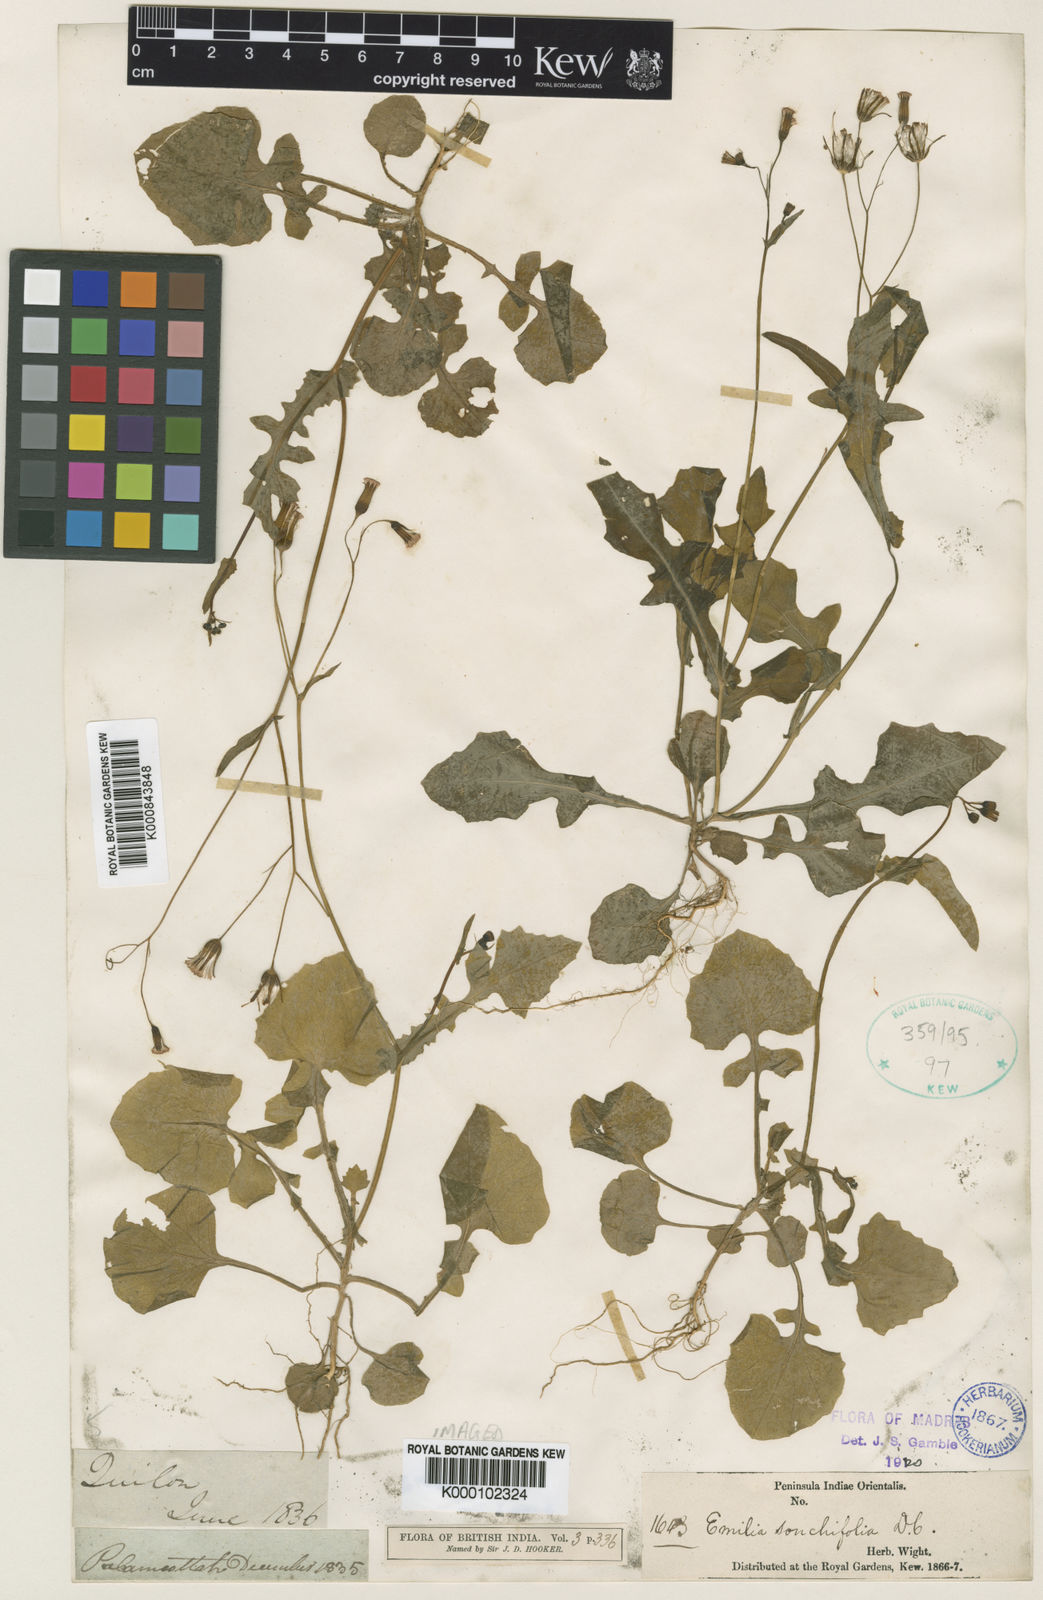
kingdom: Plantae
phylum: Tracheophyta
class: Magnoliopsida
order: Asterales
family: Asteraceae
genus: Emilia
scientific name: Emilia sonchifolia
